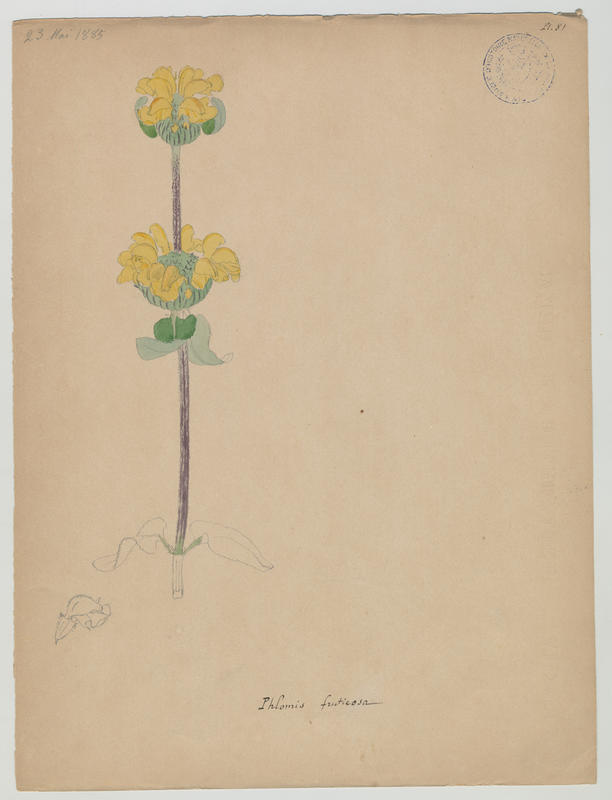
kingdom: Plantae
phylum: Tracheophyta
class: Magnoliopsida
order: Lamiales
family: Lamiaceae
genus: Phlomis
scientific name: Phlomis fruticosa
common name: Jerusalem sage
